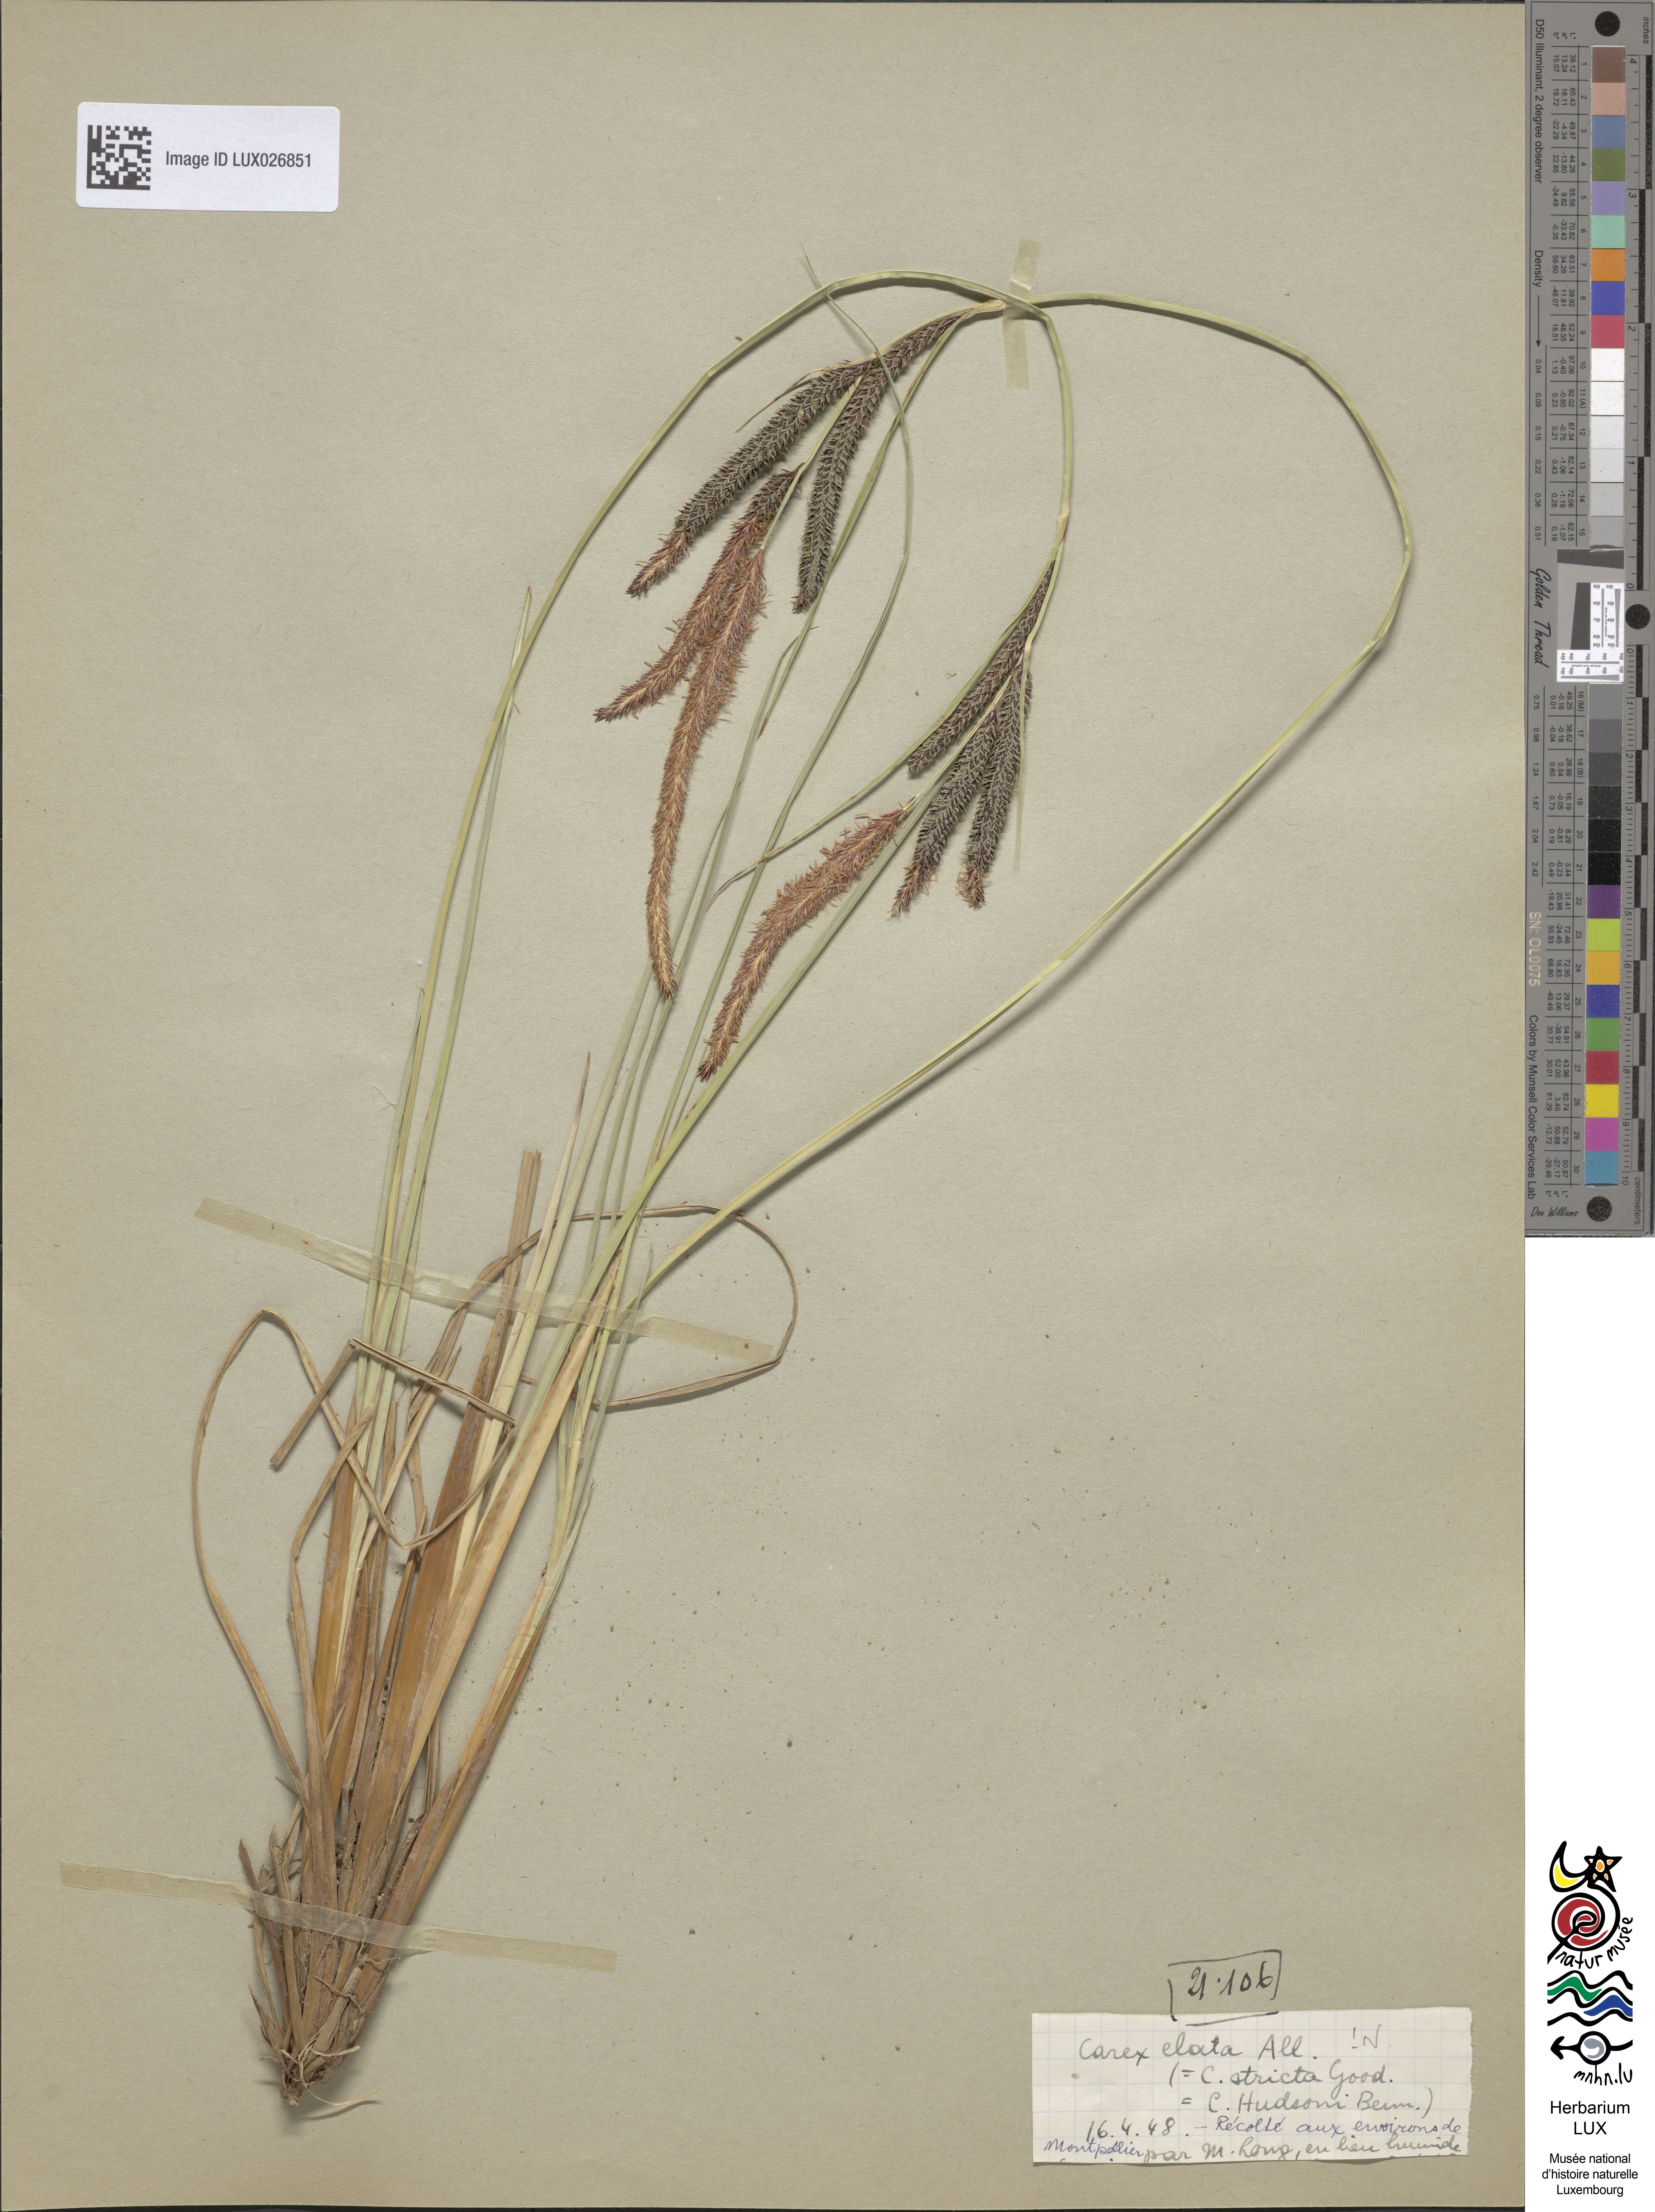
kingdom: Plantae
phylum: Tracheophyta
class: Liliopsida
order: Poales
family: Cyperaceae
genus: Carex
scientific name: Carex elata
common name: Tufted sedge
